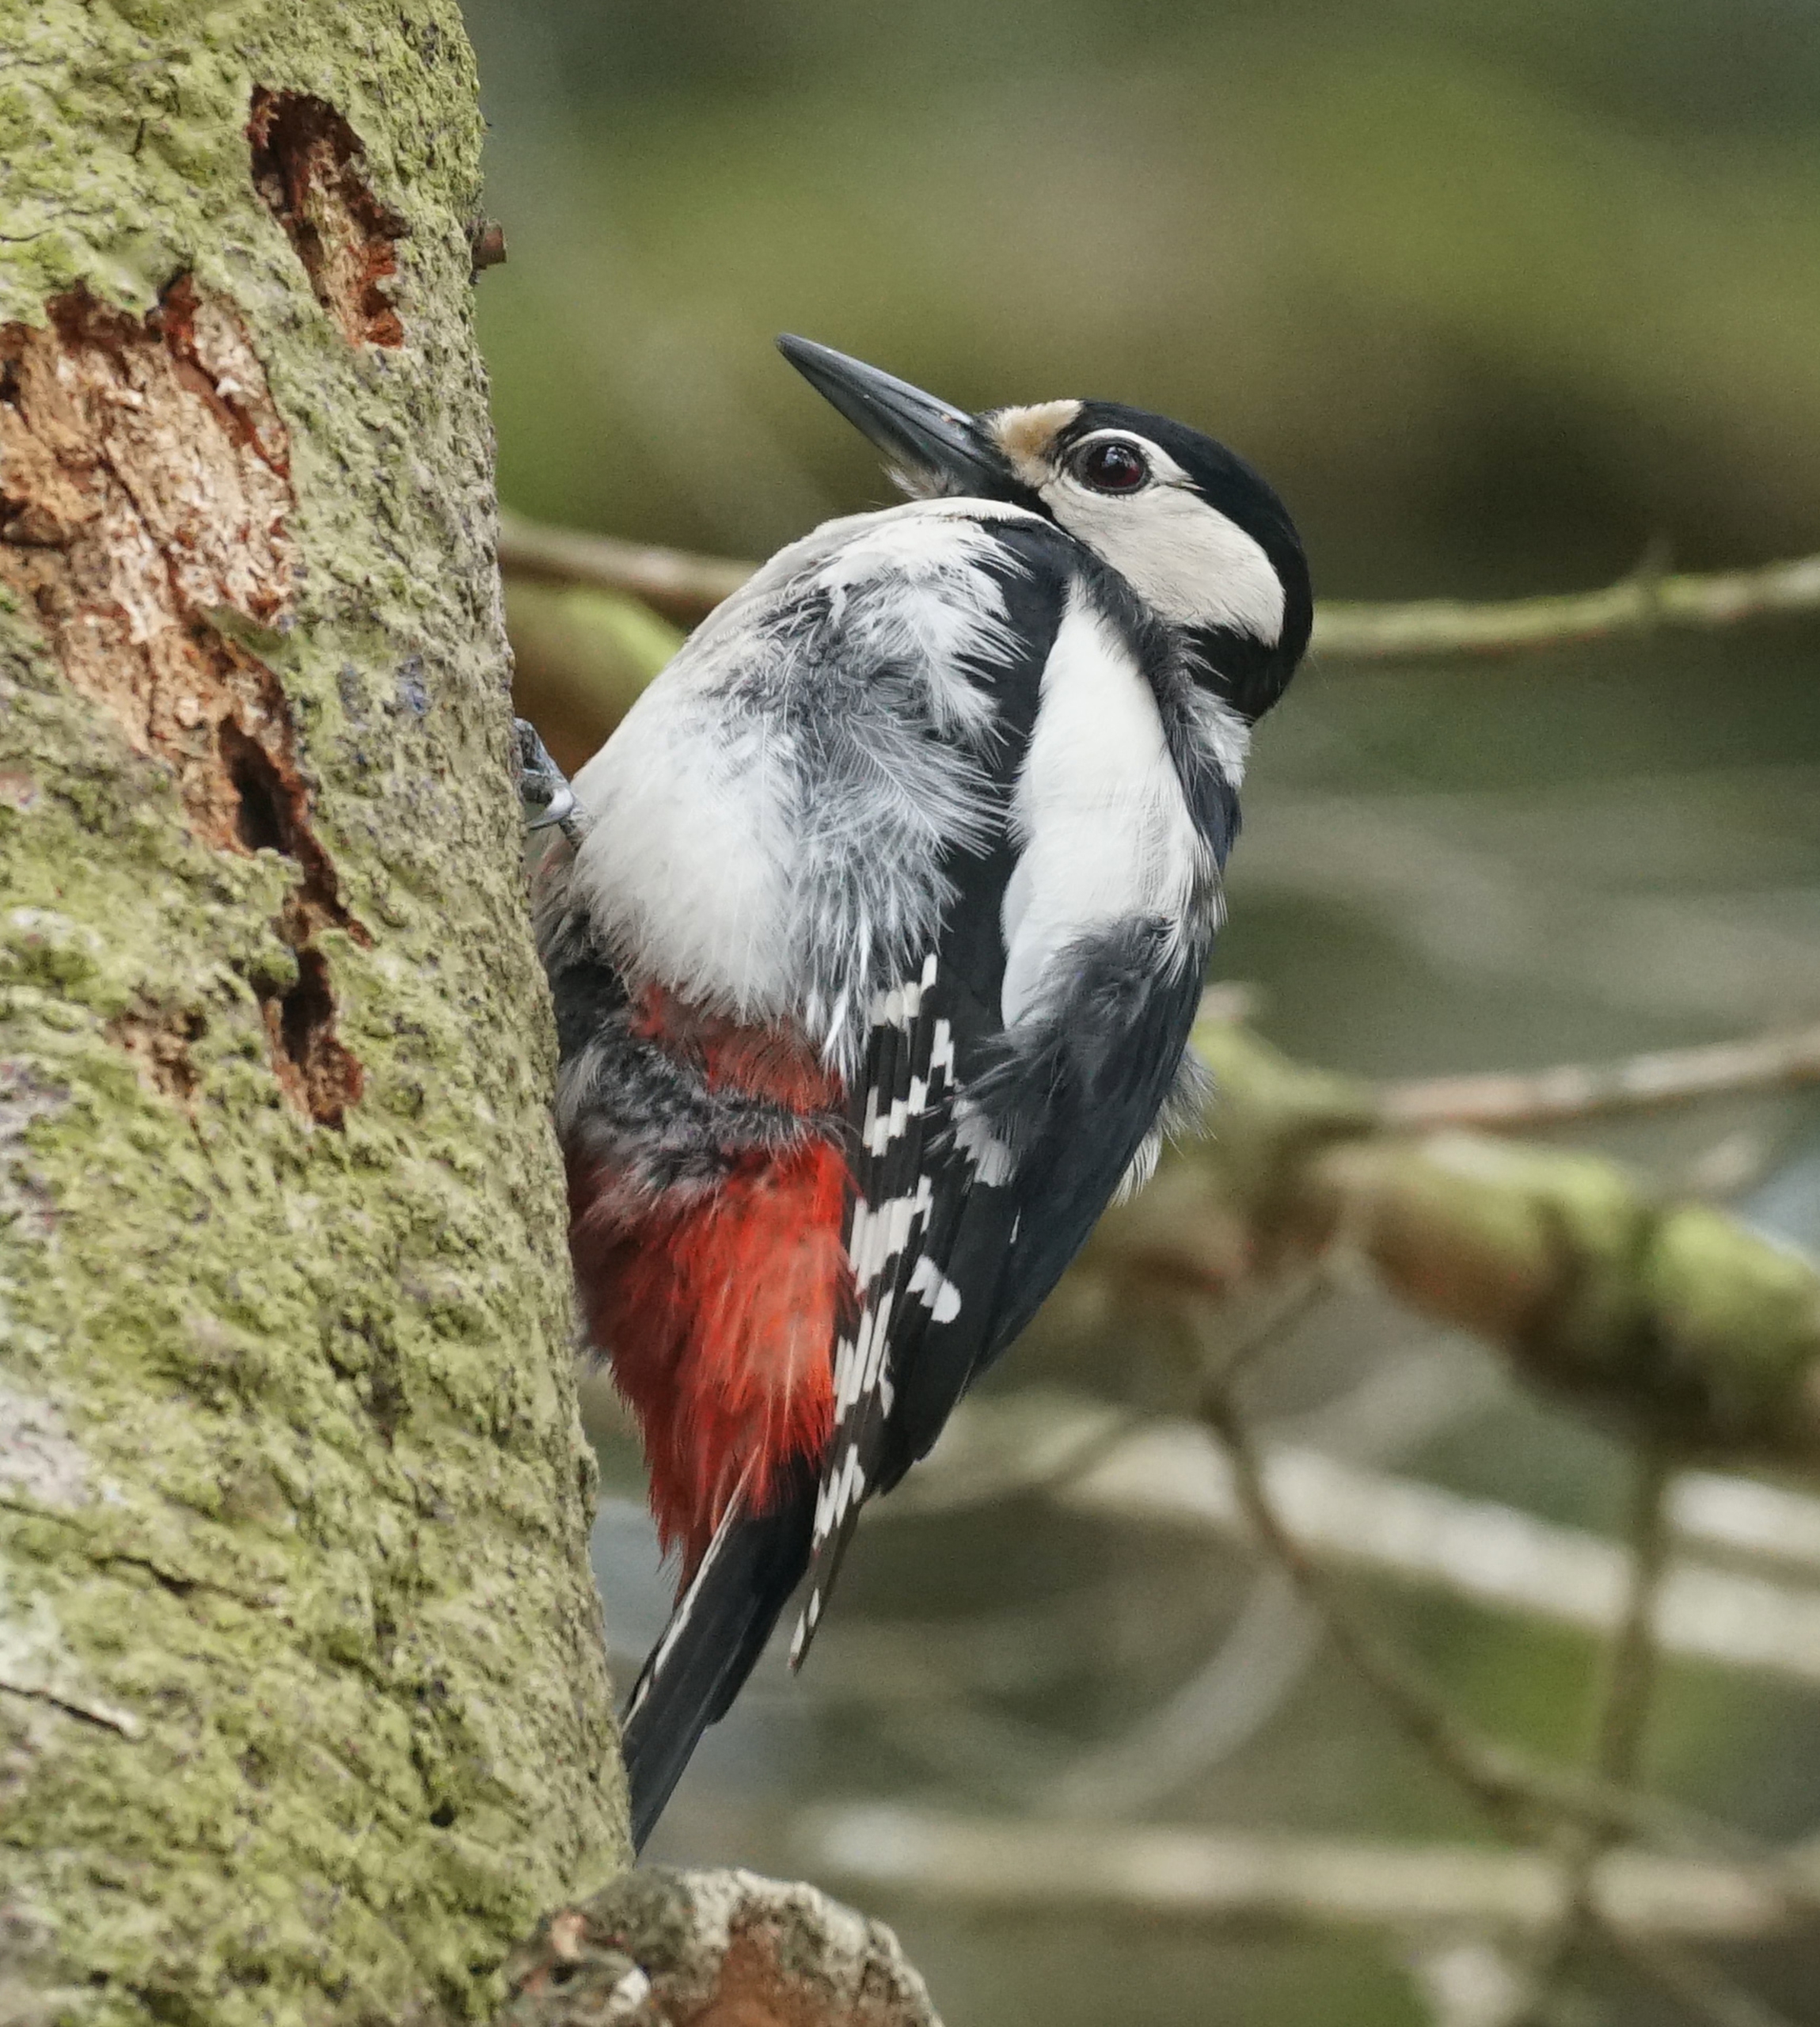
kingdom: Animalia
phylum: Chordata
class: Aves
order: Piciformes
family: Picidae
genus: Dendrocopos
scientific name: Dendrocopos major
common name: Stor flagspætte
